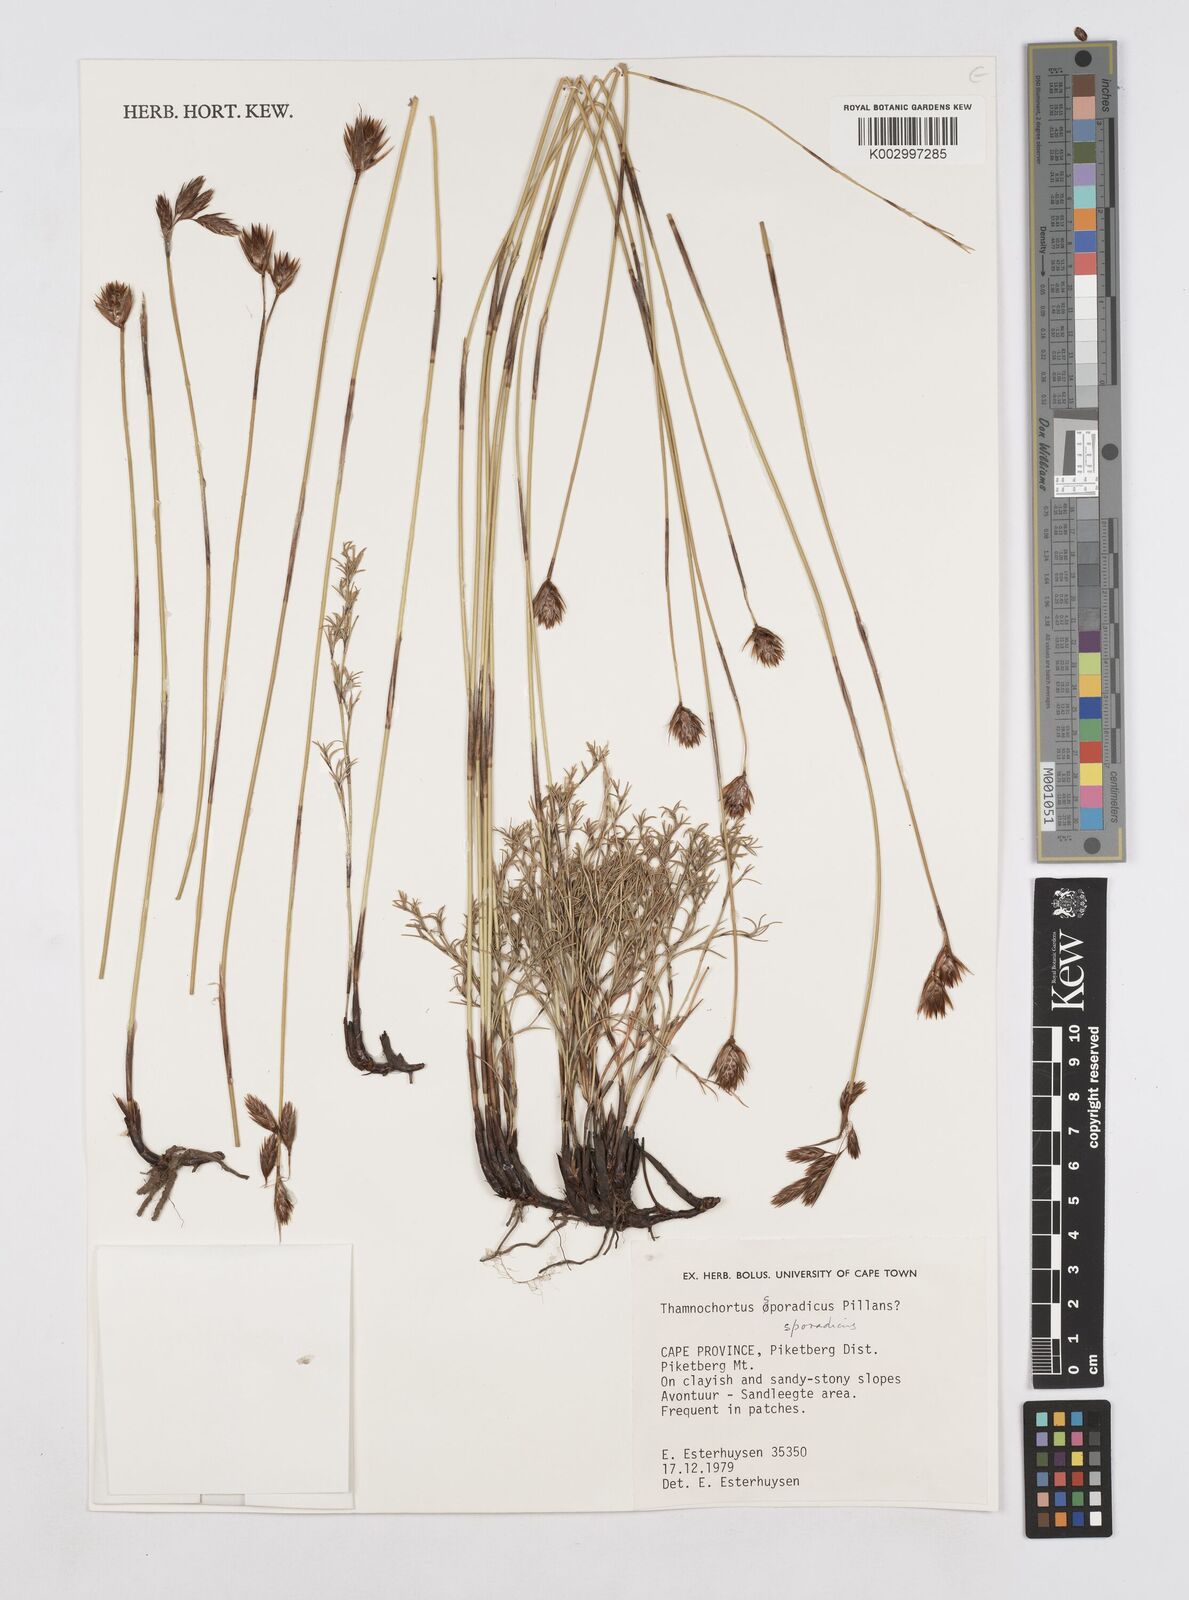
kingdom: Plantae
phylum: Tracheophyta
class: Liliopsida
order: Poales
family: Restionaceae
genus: Thamnochortus
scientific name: Thamnochortus sporadicus
